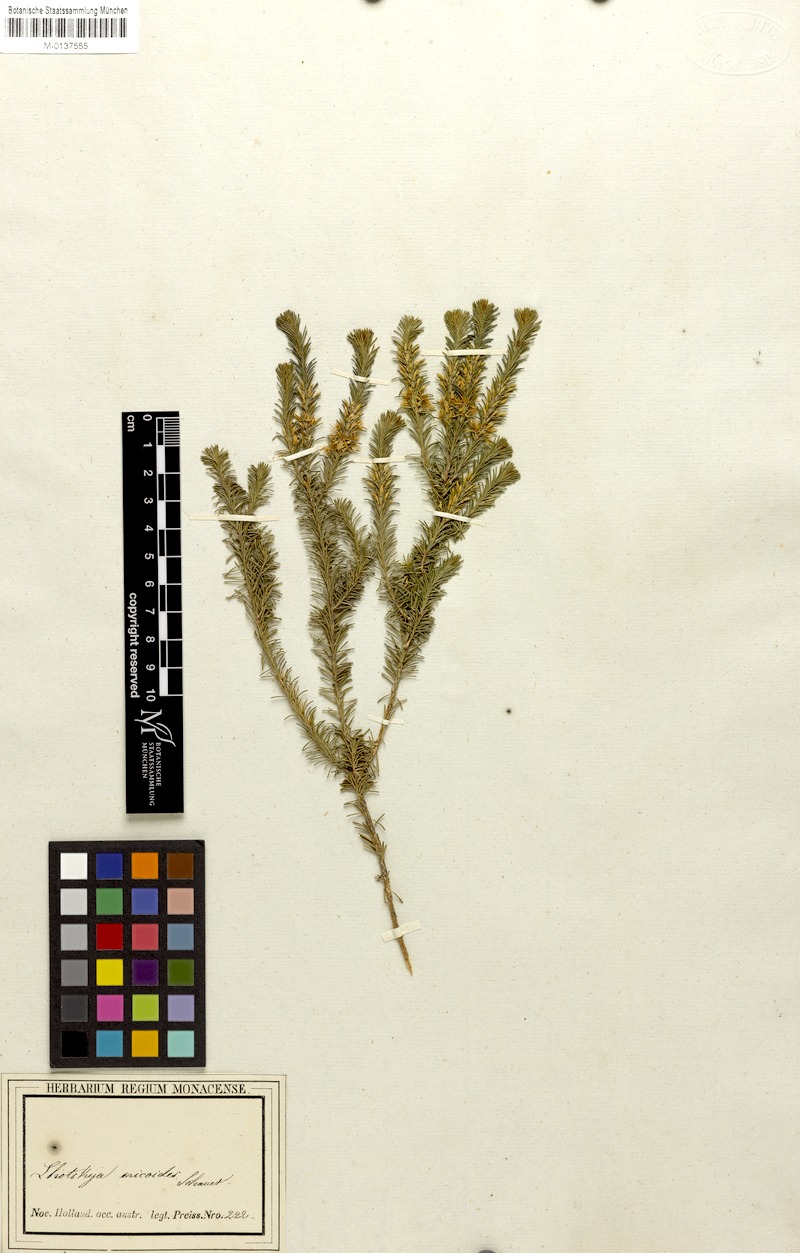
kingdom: Plantae
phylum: Tracheophyta
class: Magnoliopsida
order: Myrtales
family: Myrtaceae
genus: Calytrix
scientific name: Calytrix acutifolia
